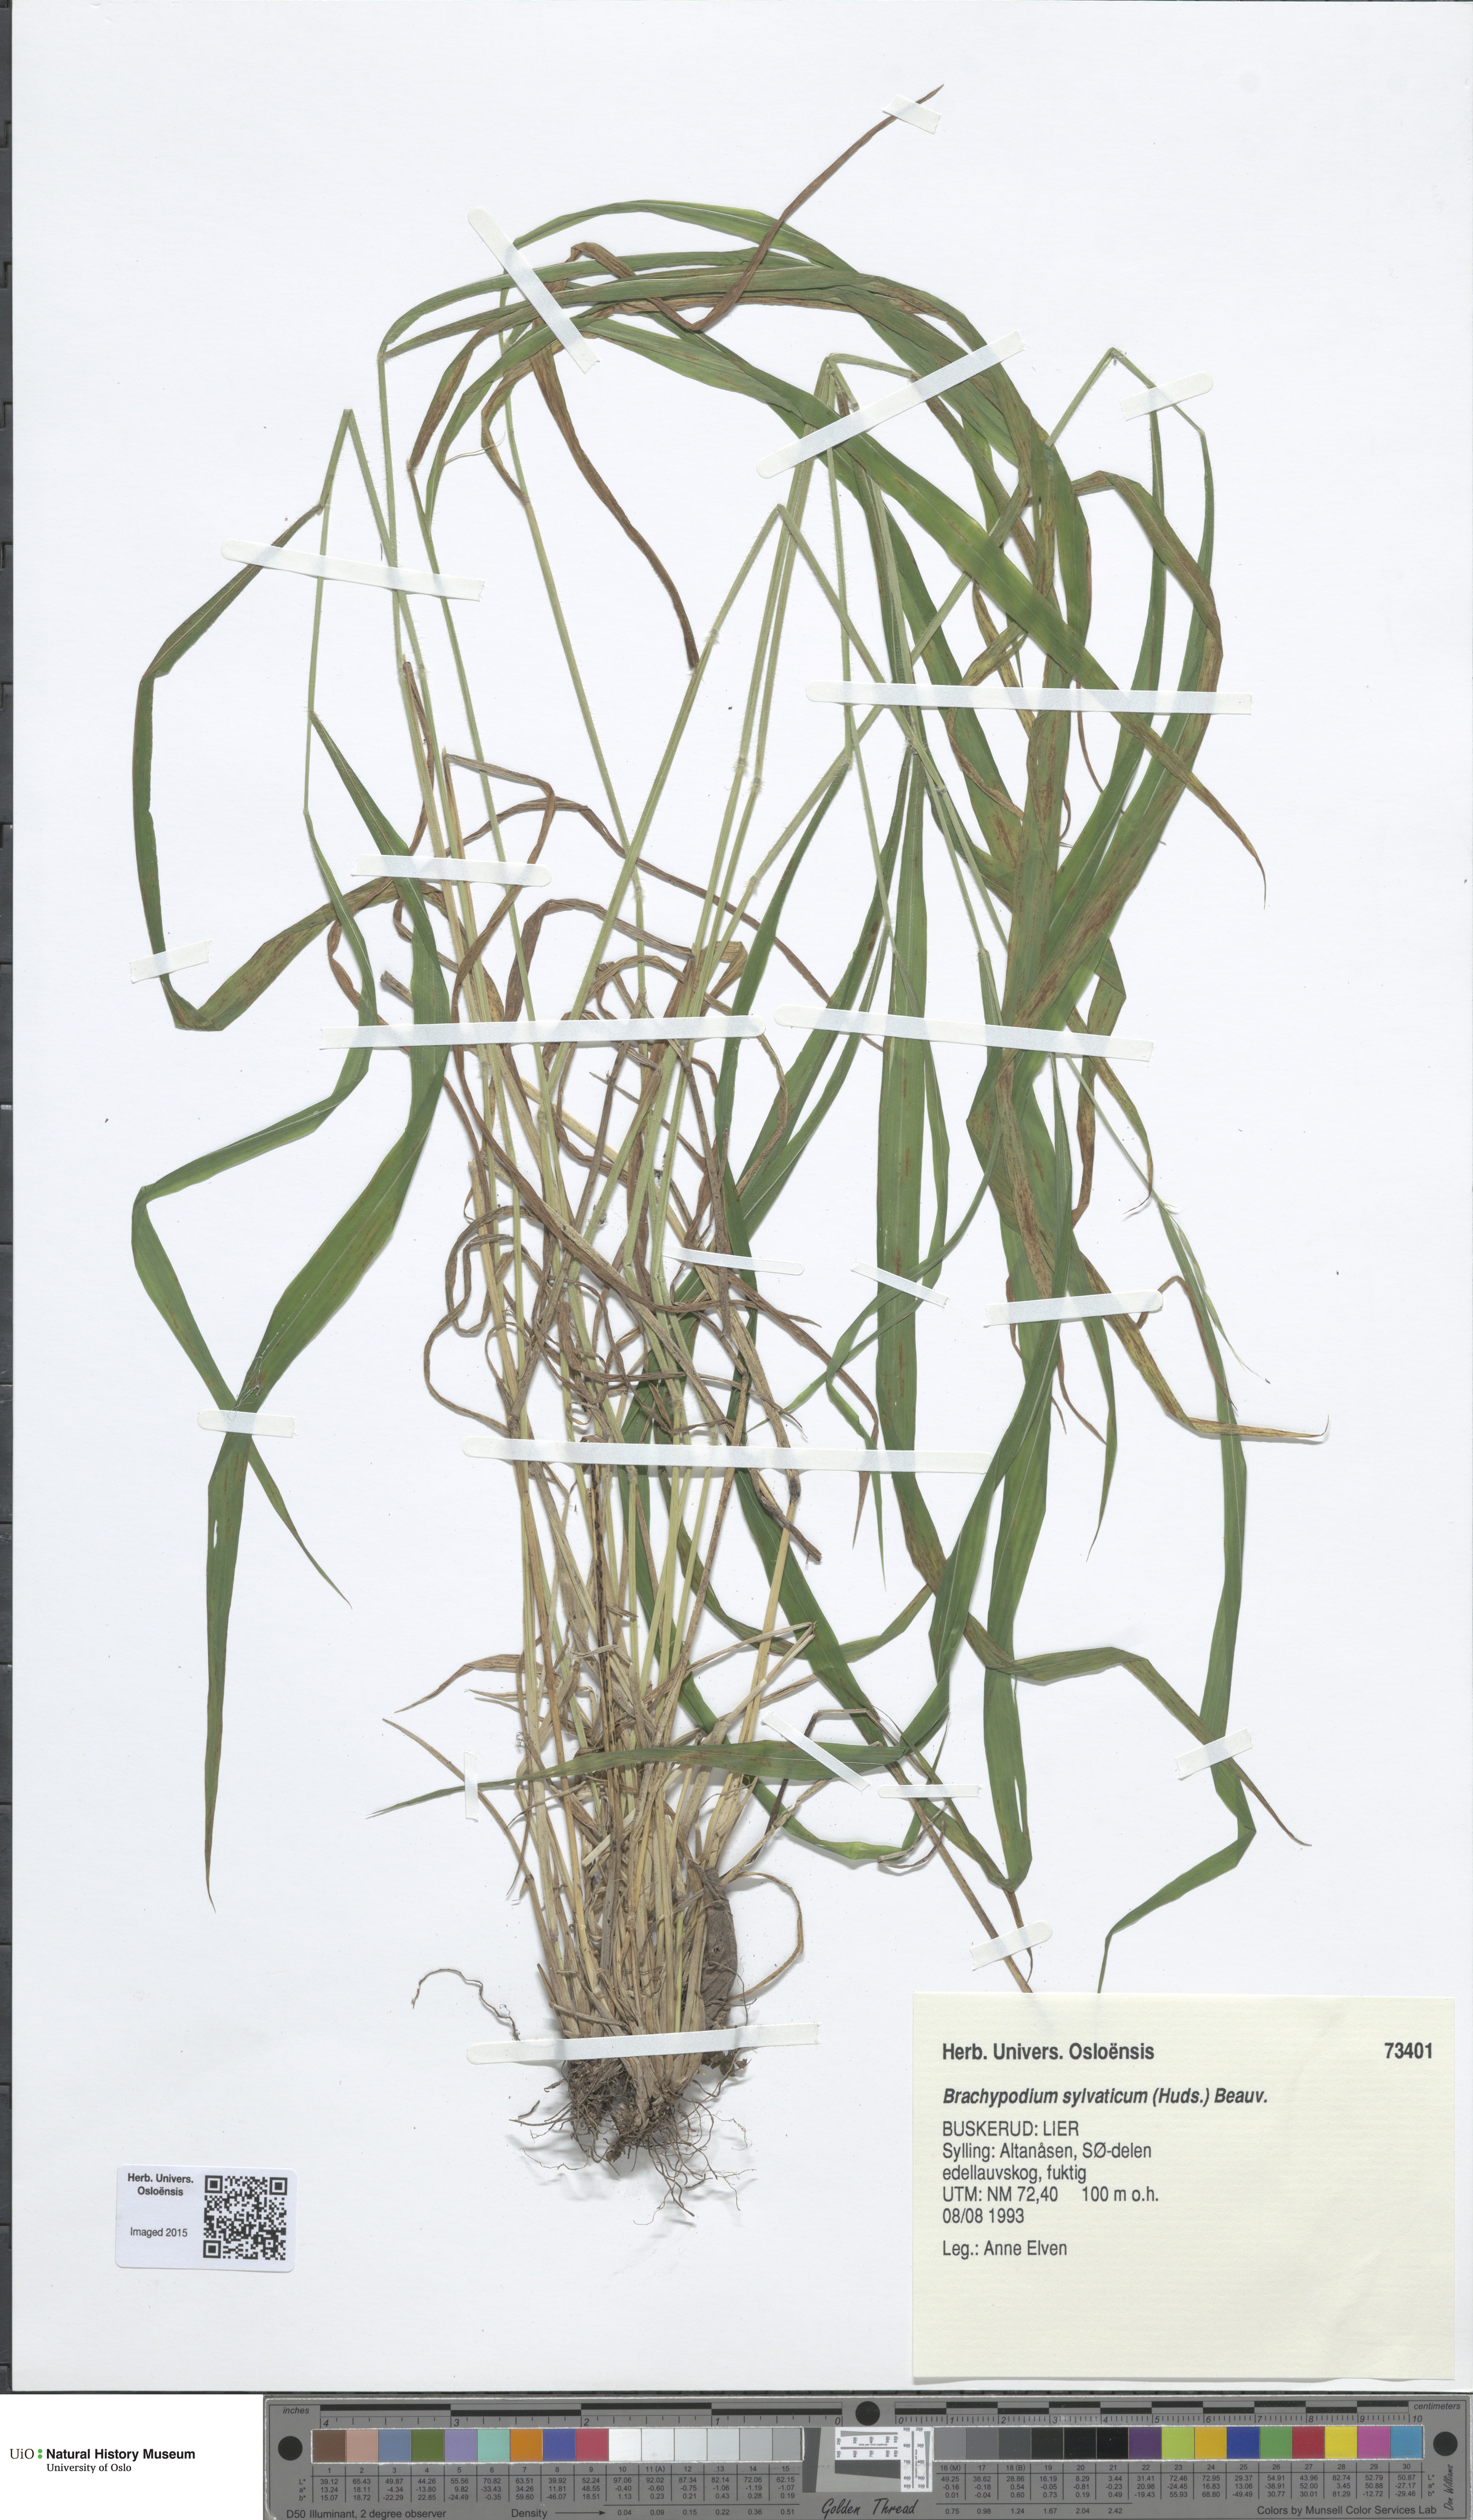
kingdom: Plantae
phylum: Tracheophyta
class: Liliopsida
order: Poales
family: Poaceae
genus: Brachypodium
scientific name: Brachypodium sylvaticum
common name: False-brome
